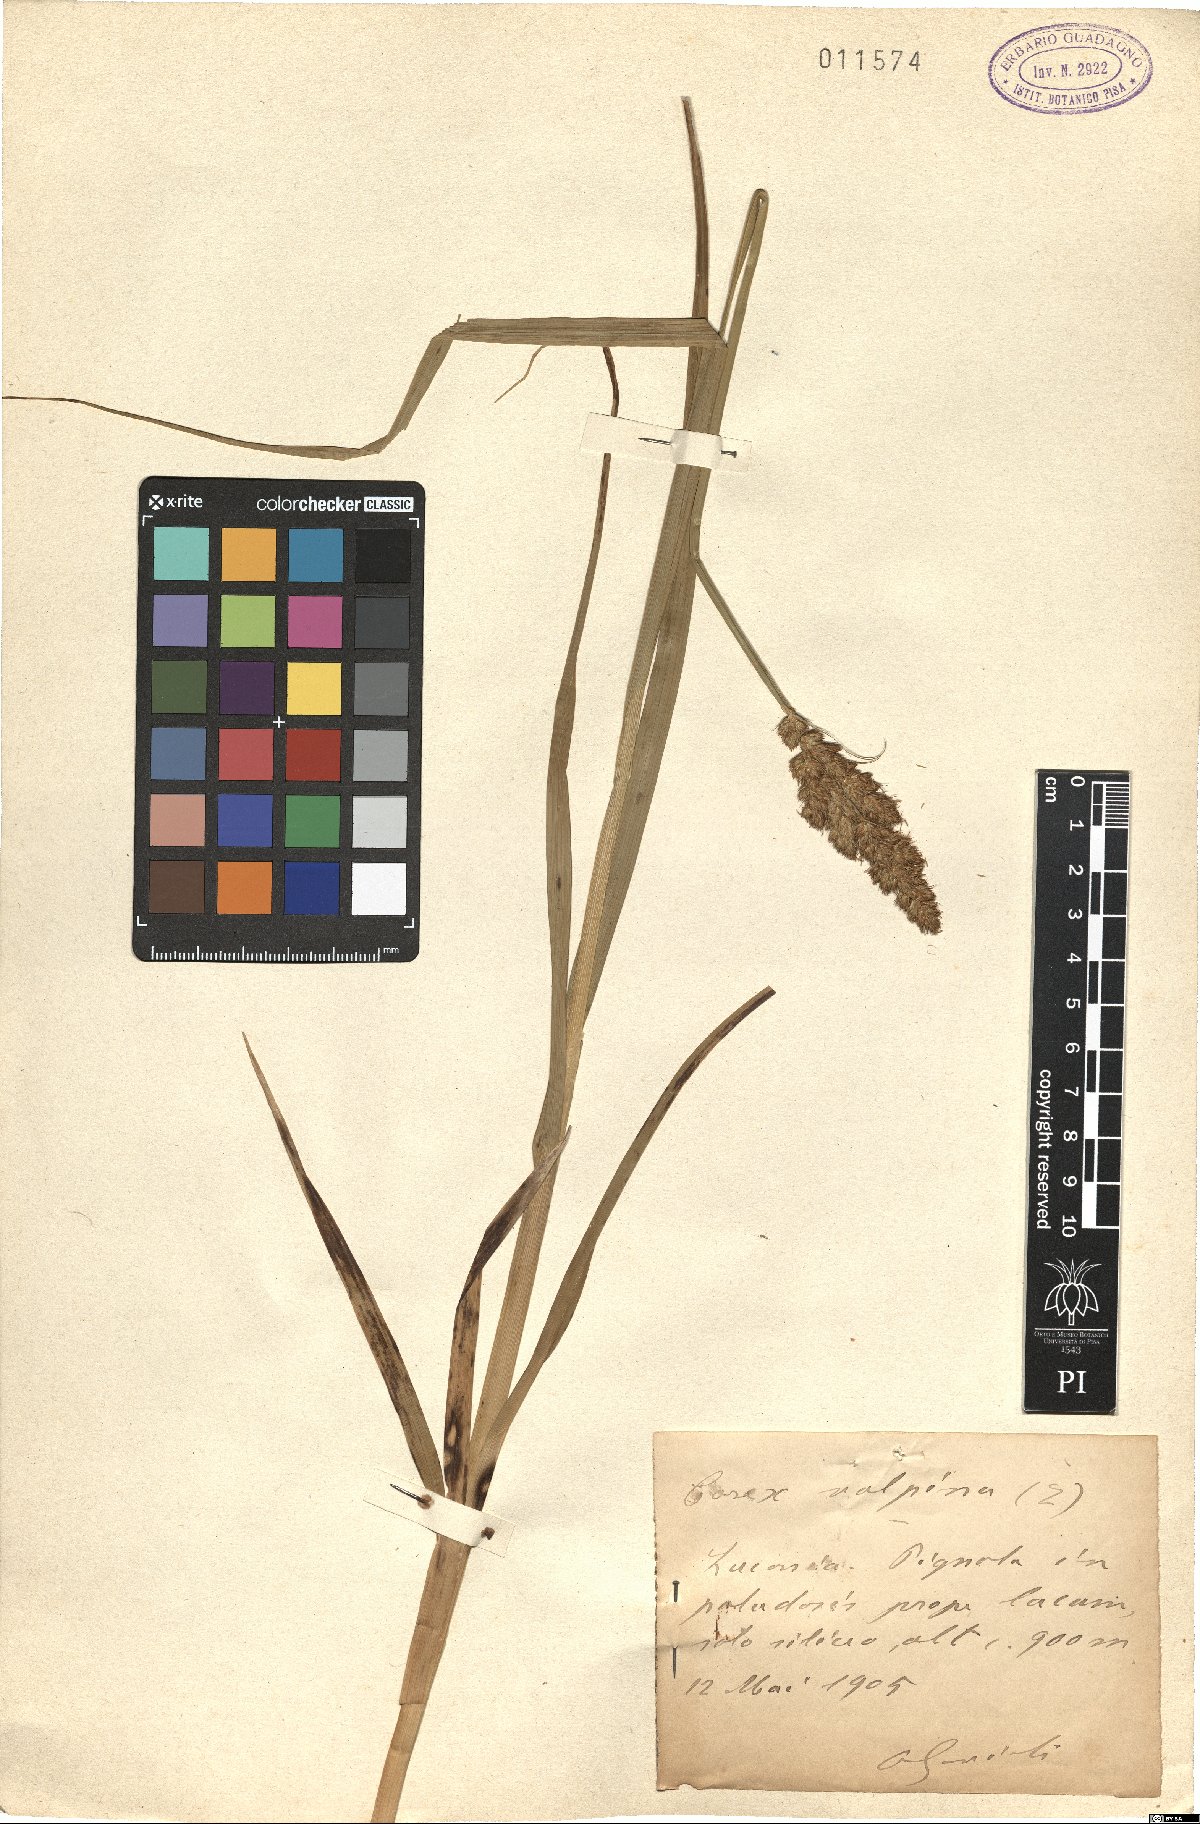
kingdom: Plantae
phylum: Tracheophyta
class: Liliopsida
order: Poales
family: Cyperaceae
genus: Carex
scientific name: Carex vulpina
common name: True fox-sedge
